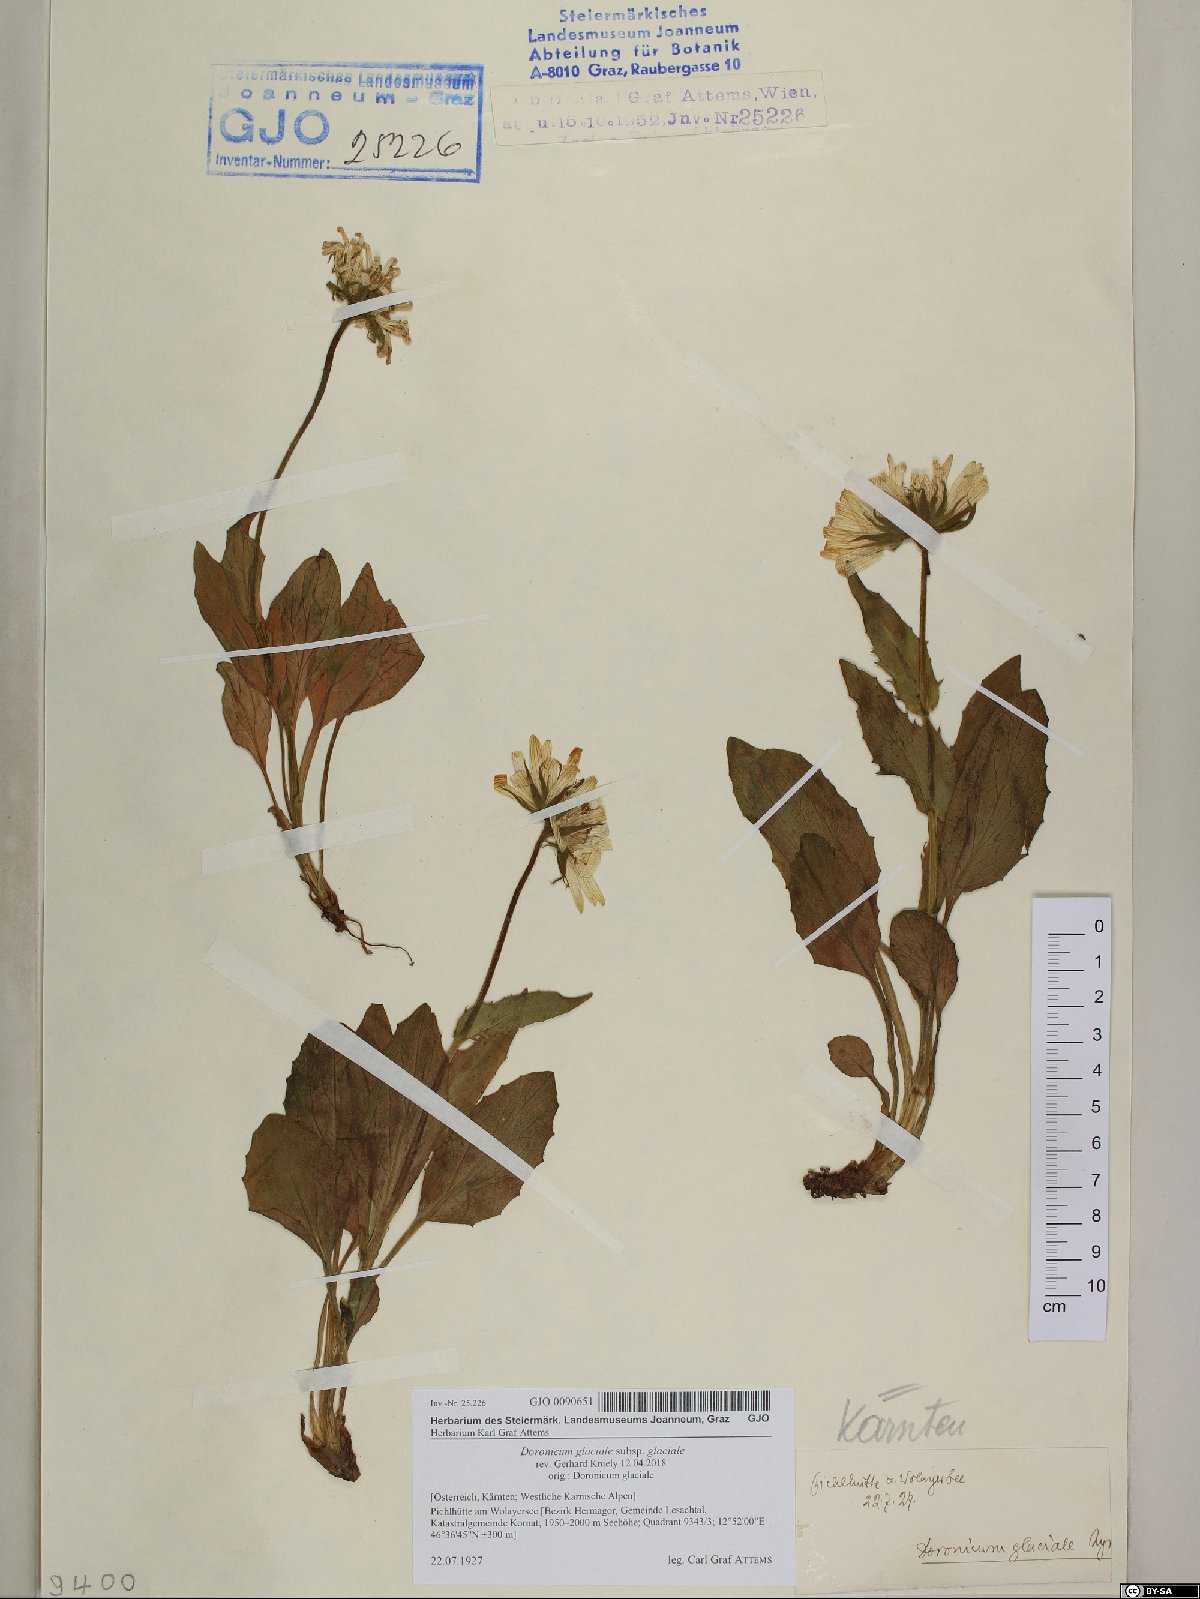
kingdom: Plantae
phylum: Tracheophyta
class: Magnoliopsida
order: Asterales
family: Asteraceae
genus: Doronicum
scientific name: Doronicum glaciale
